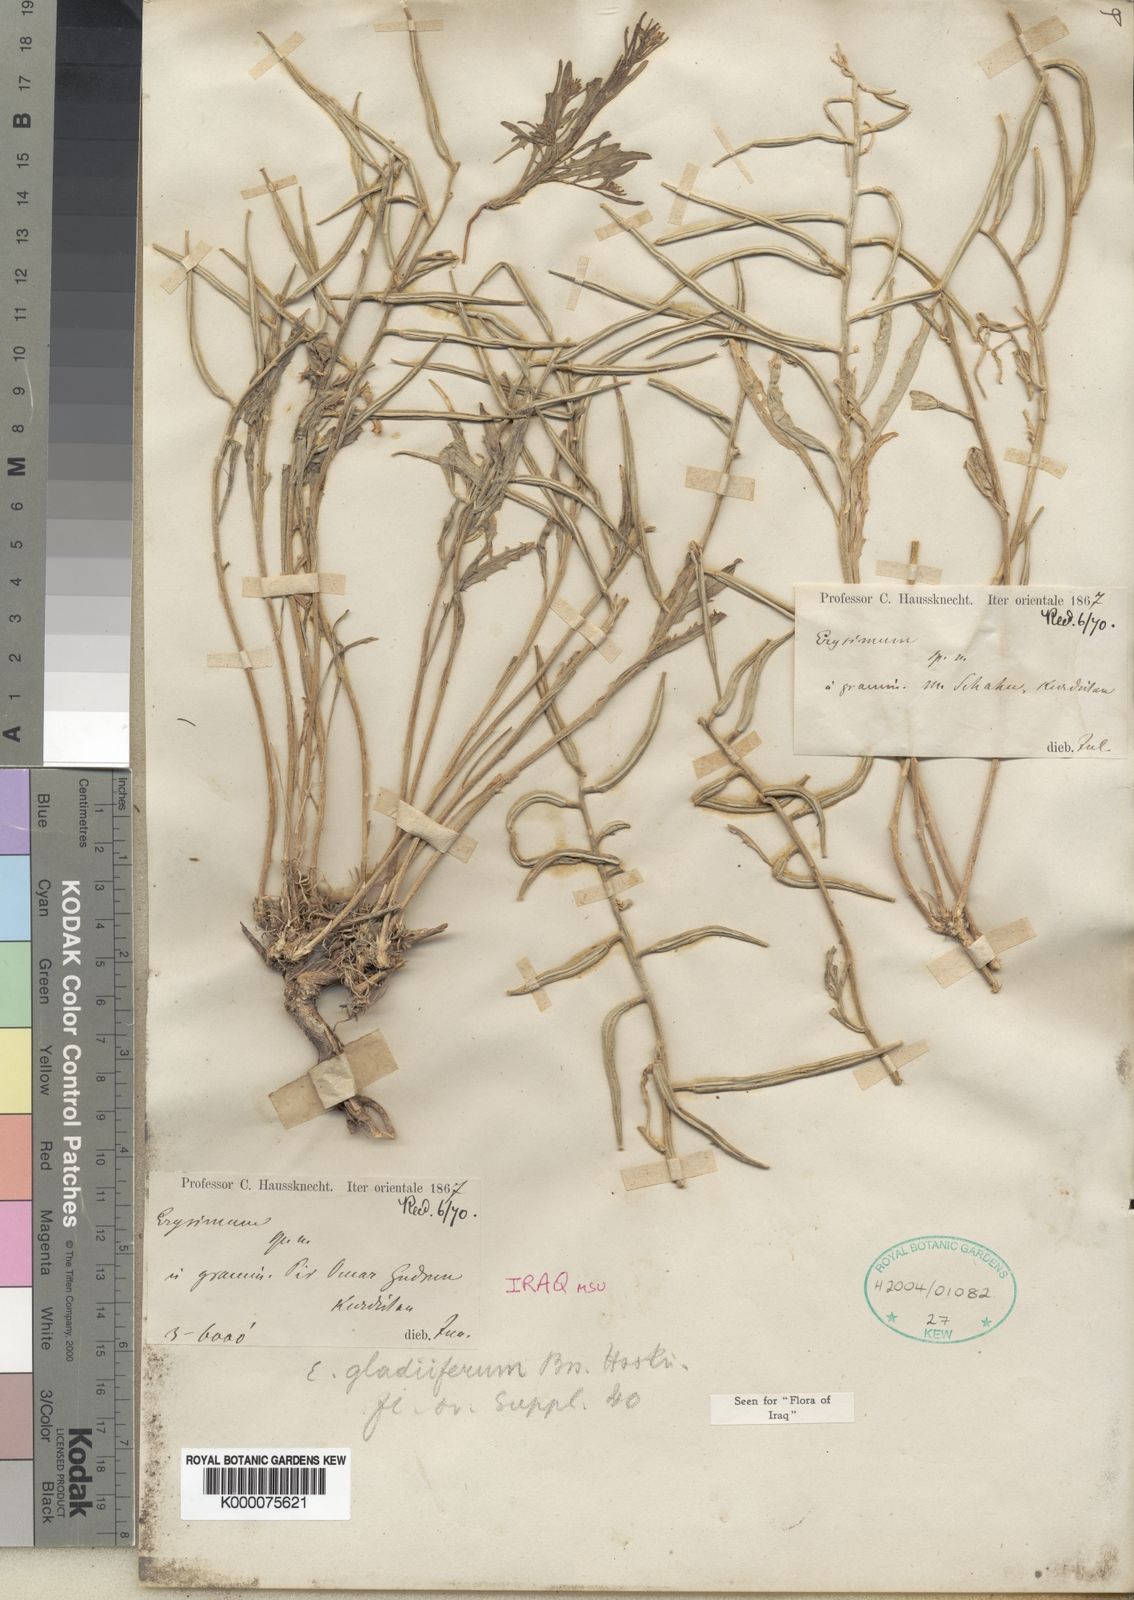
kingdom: Plantae
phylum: Tracheophyta
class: Magnoliopsida
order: Brassicales
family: Brassicaceae
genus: Erysimum
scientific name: Erysimum gladiiferum
